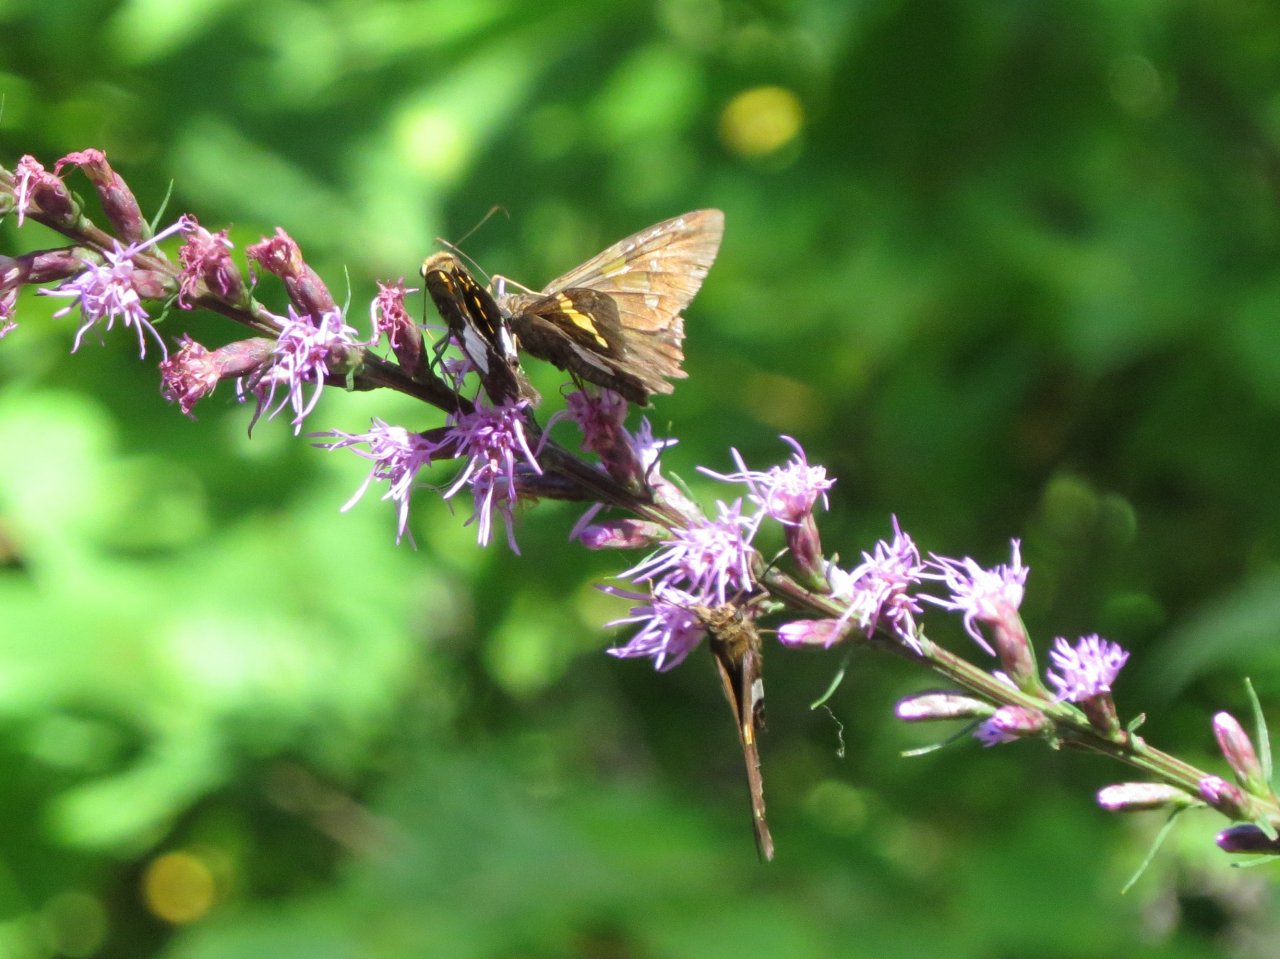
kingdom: Animalia
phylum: Arthropoda
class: Insecta
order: Lepidoptera
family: Hesperiidae
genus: Epargyreus
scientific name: Epargyreus clarus
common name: Silver-spotted Skipper
